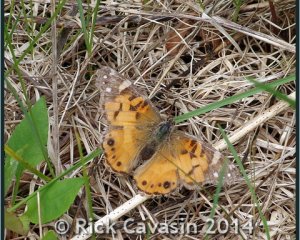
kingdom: Animalia
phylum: Arthropoda
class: Insecta
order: Lepidoptera
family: Nymphalidae
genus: Vanessa
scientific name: Vanessa virginiensis
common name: American Lady
